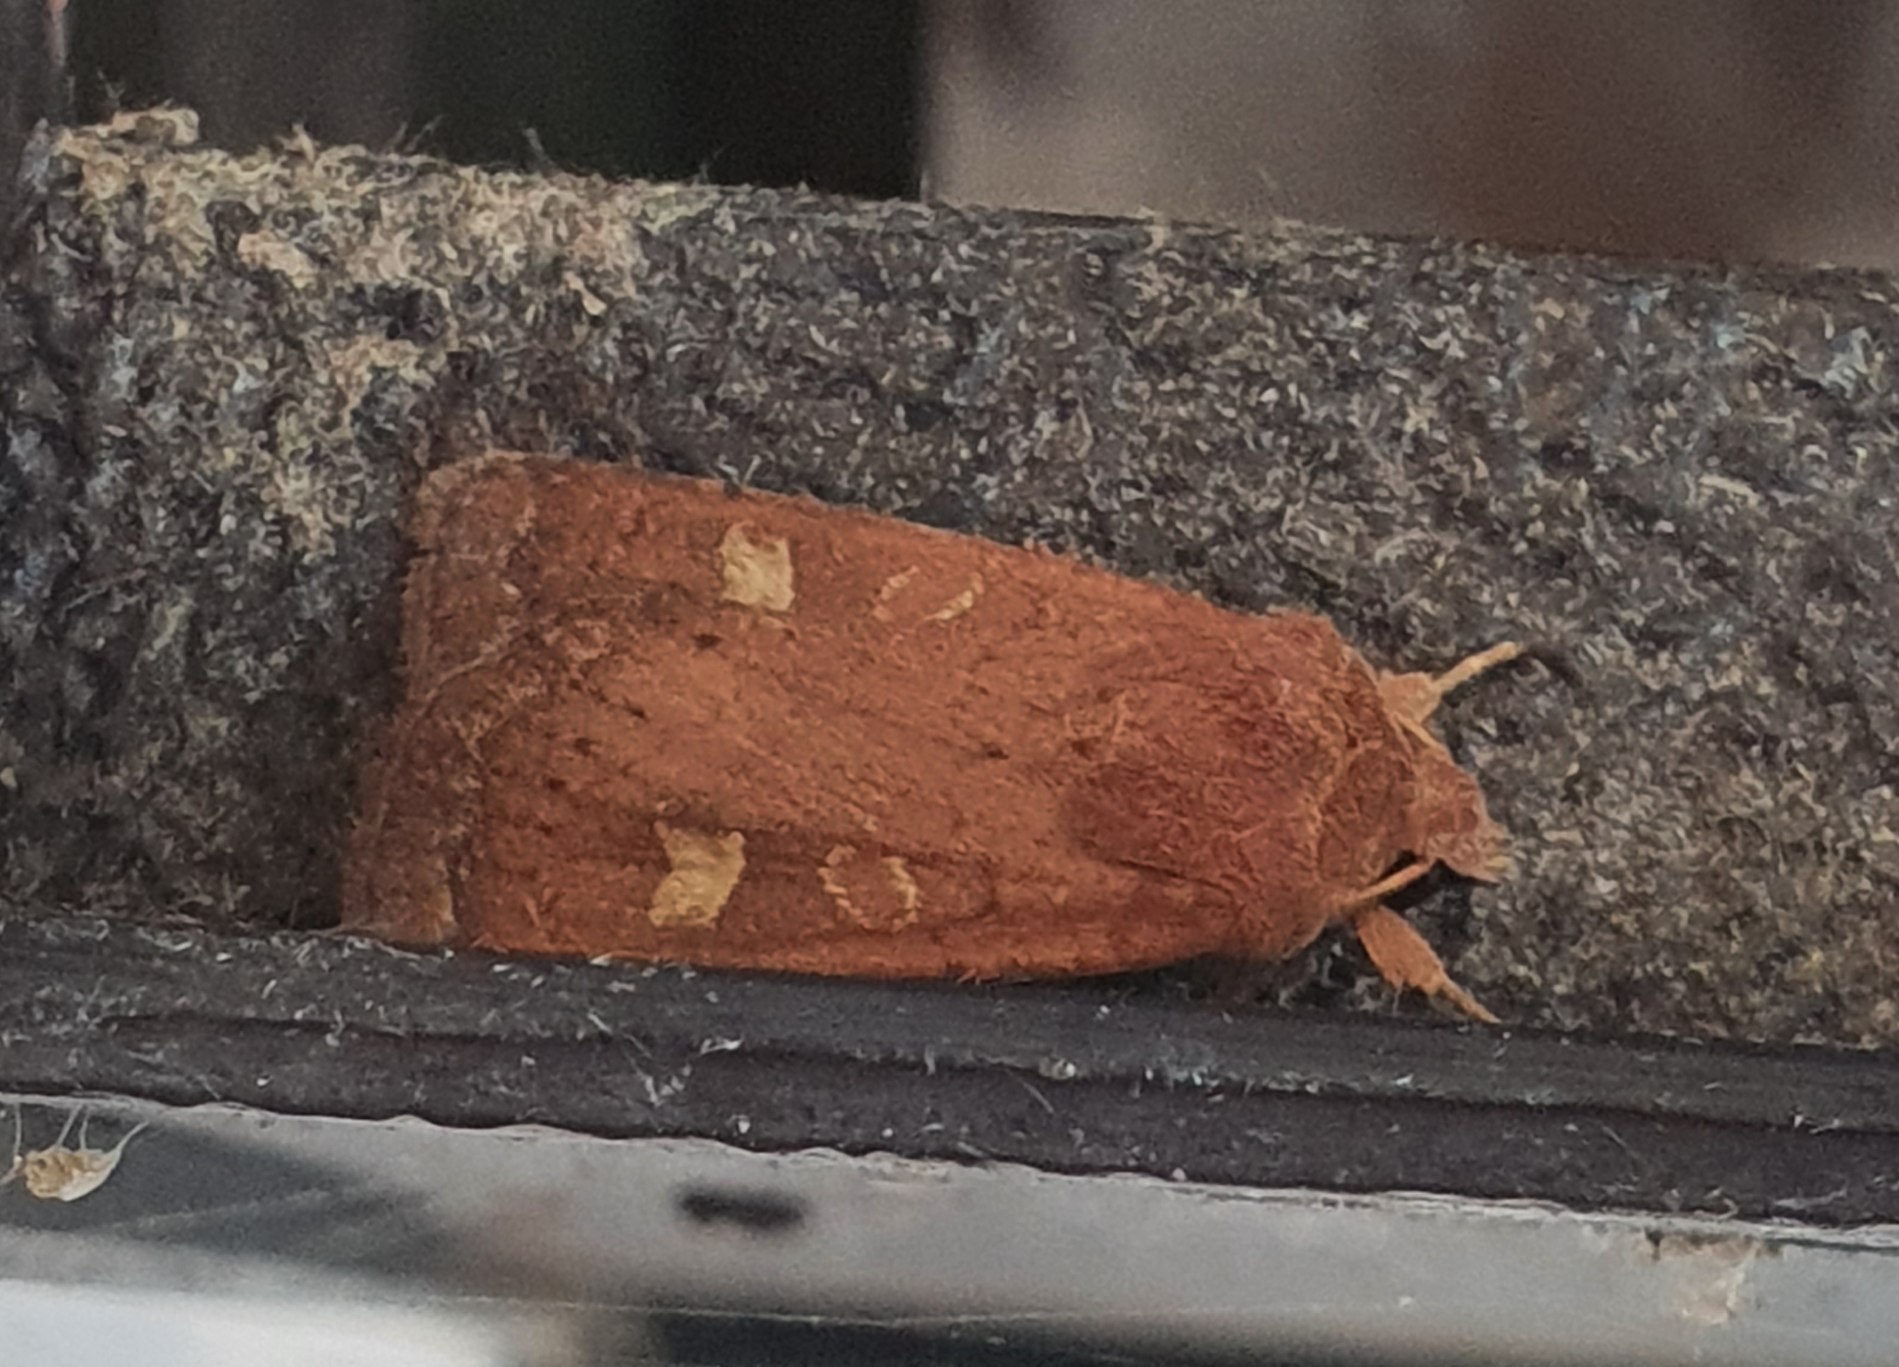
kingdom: Animalia
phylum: Arthropoda
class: Insecta
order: Lepidoptera
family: Noctuidae
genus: Xestia
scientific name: Xestia xanthographa
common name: Gulmærket glansugle
